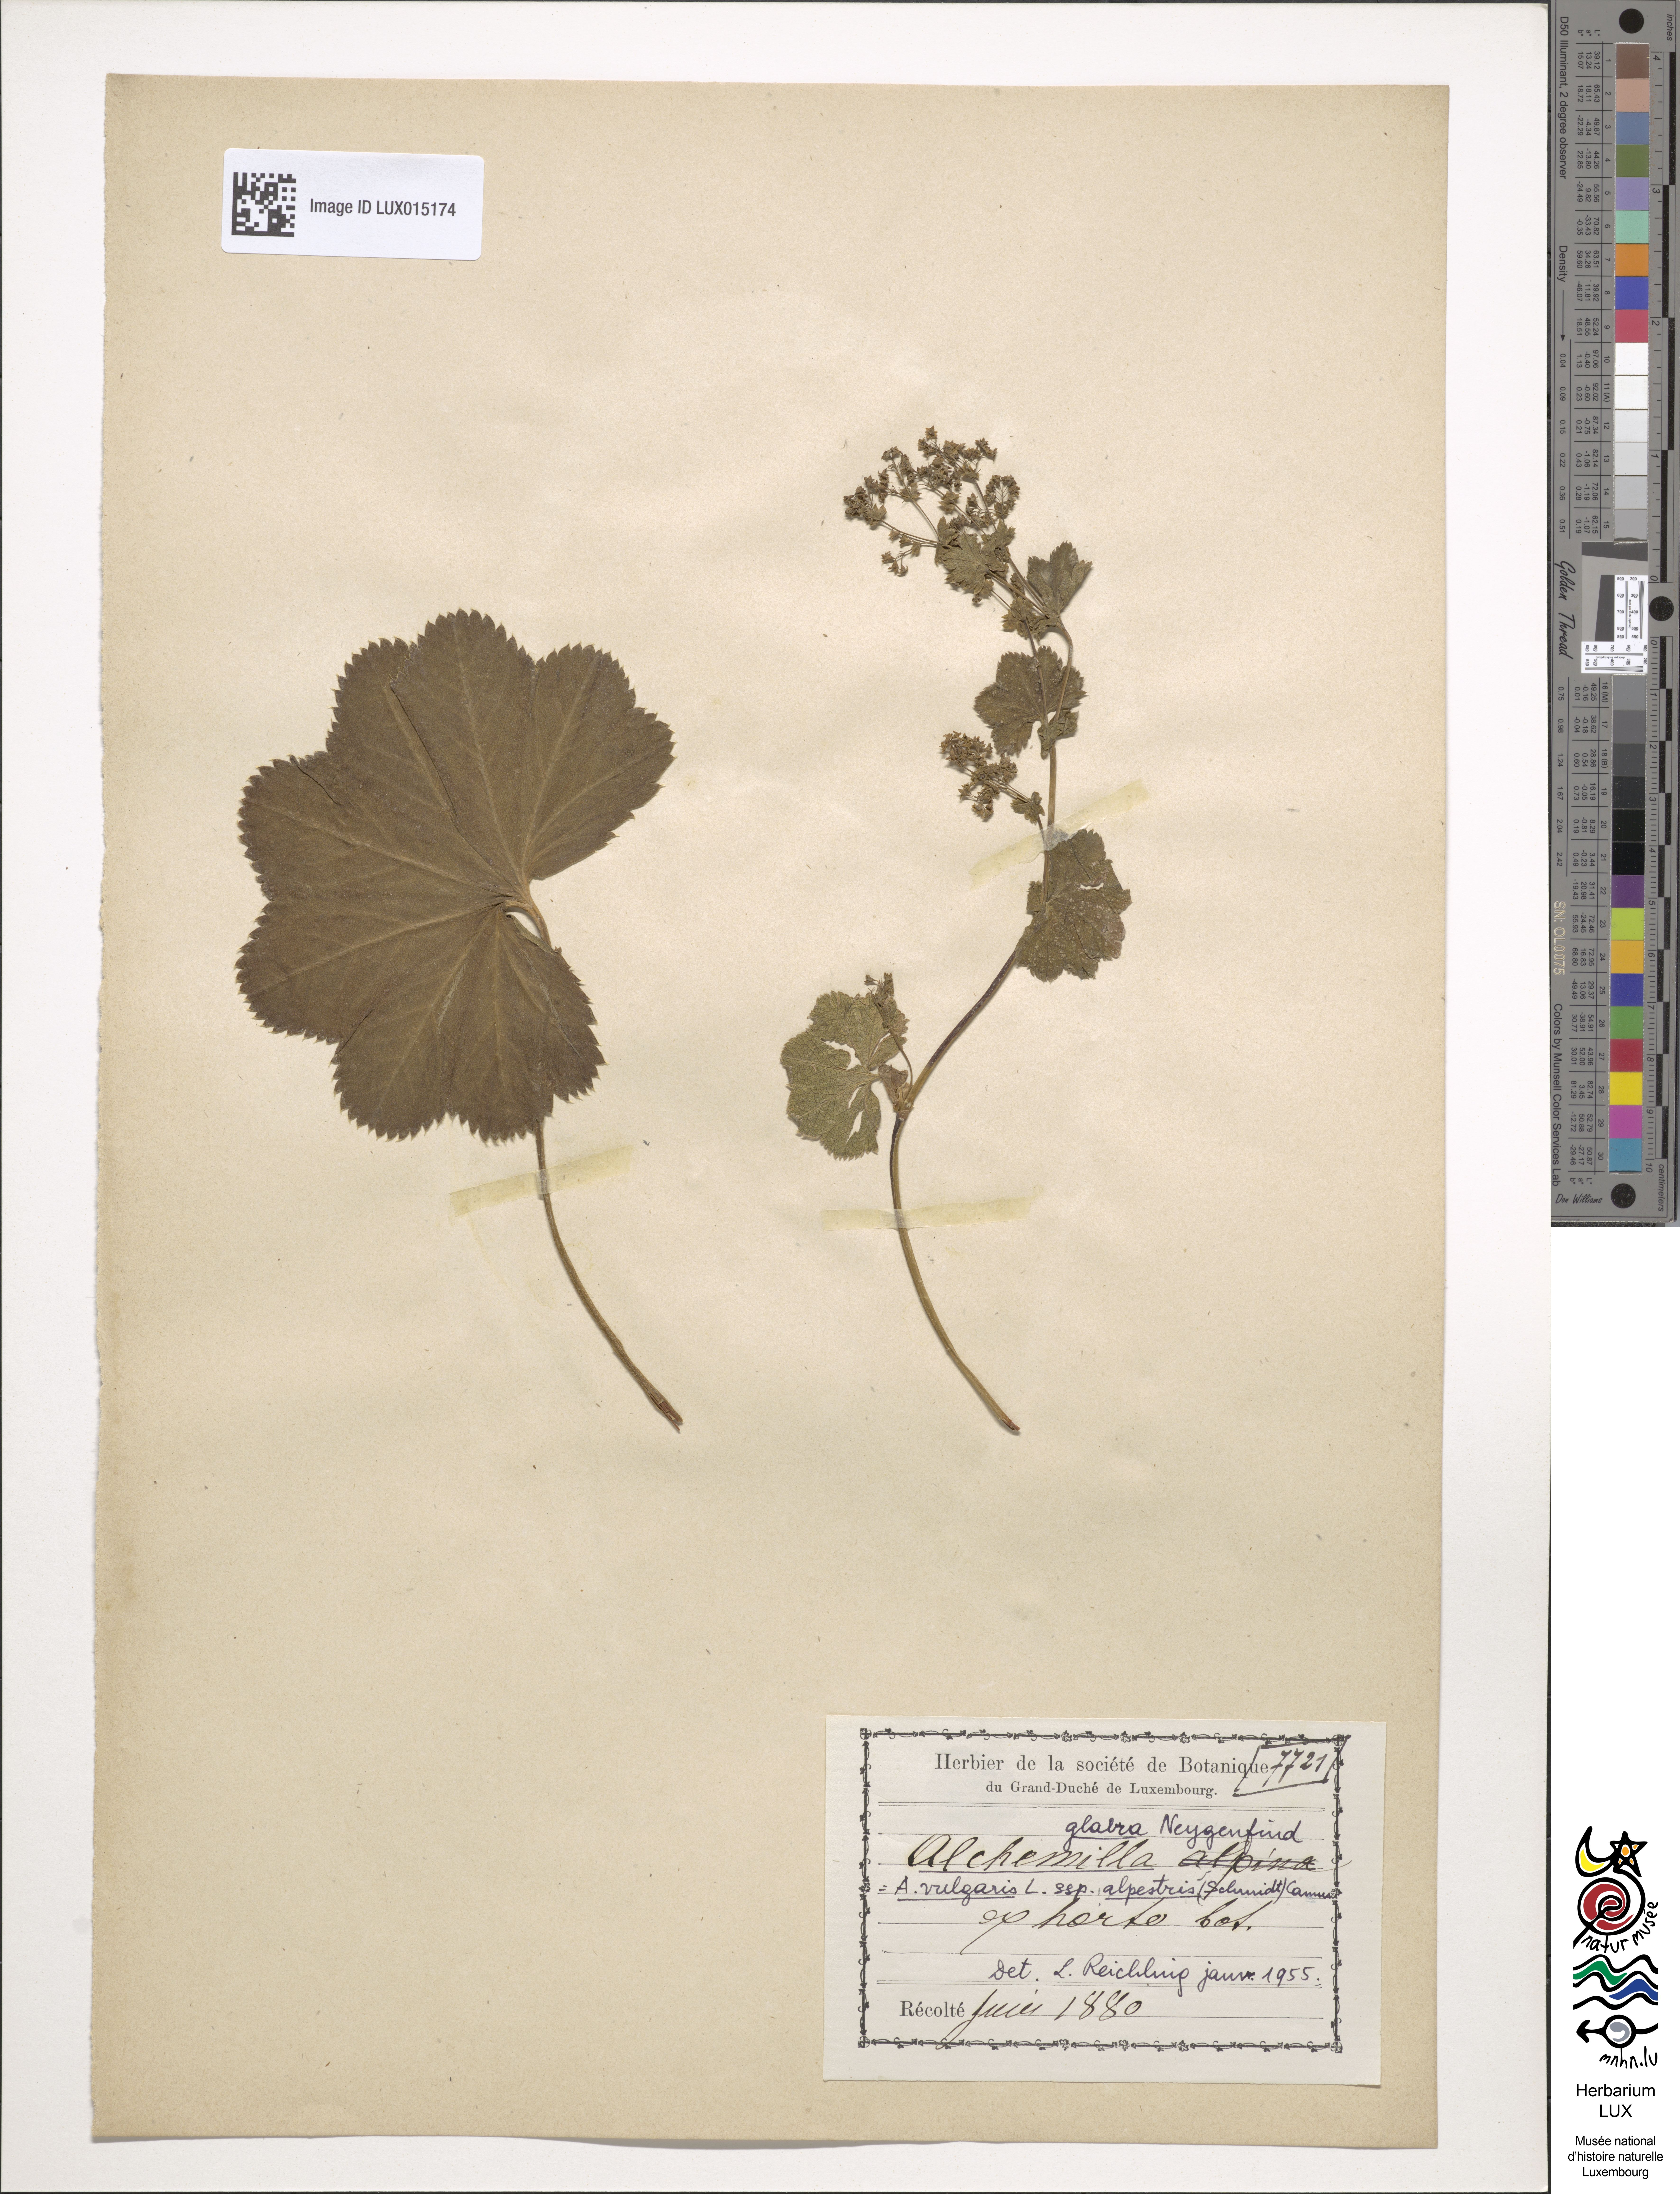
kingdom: Plantae
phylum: Tracheophyta
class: Magnoliopsida
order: Rosales
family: Rosaceae
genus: Alchemilla
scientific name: Alchemilla glabra
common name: Smooth lady's-mantle
